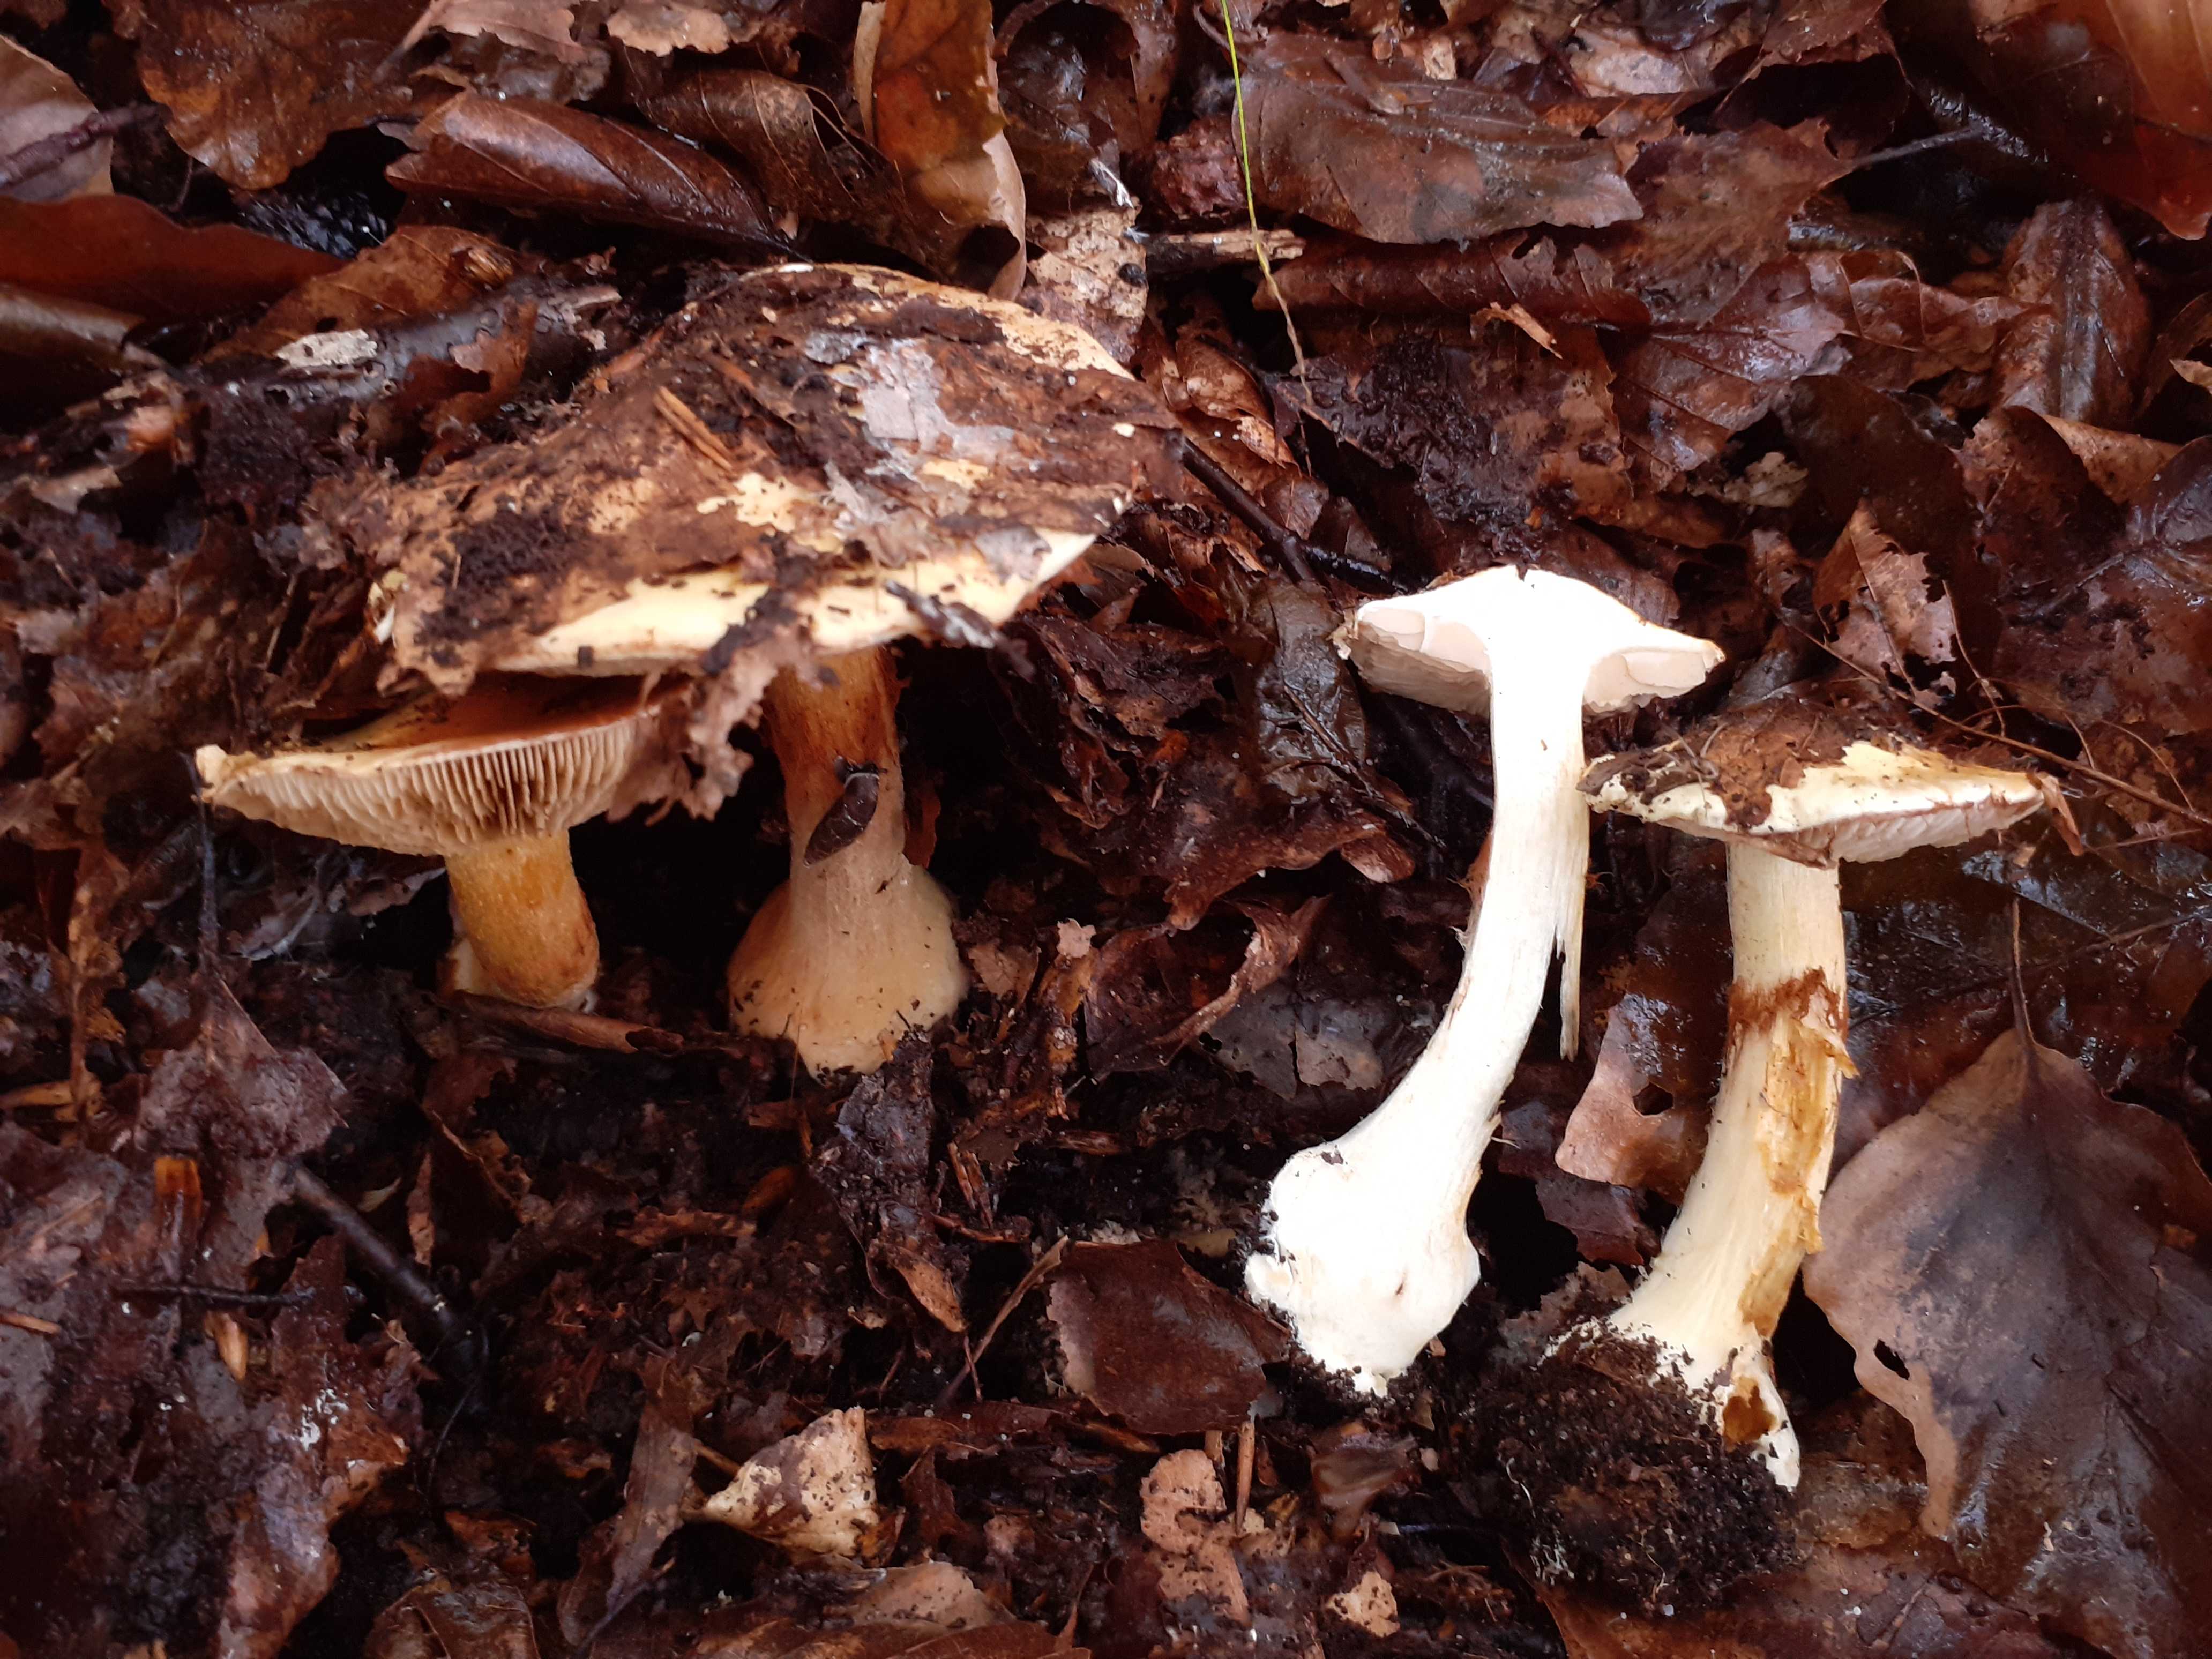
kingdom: Fungi
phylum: Basidiomycota
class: Agaricomycetes
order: Agaricales
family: Cortinariaceae
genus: Phlegmacium
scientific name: Phlegmacium caesiocortinatum
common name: rundsporet slørhat
